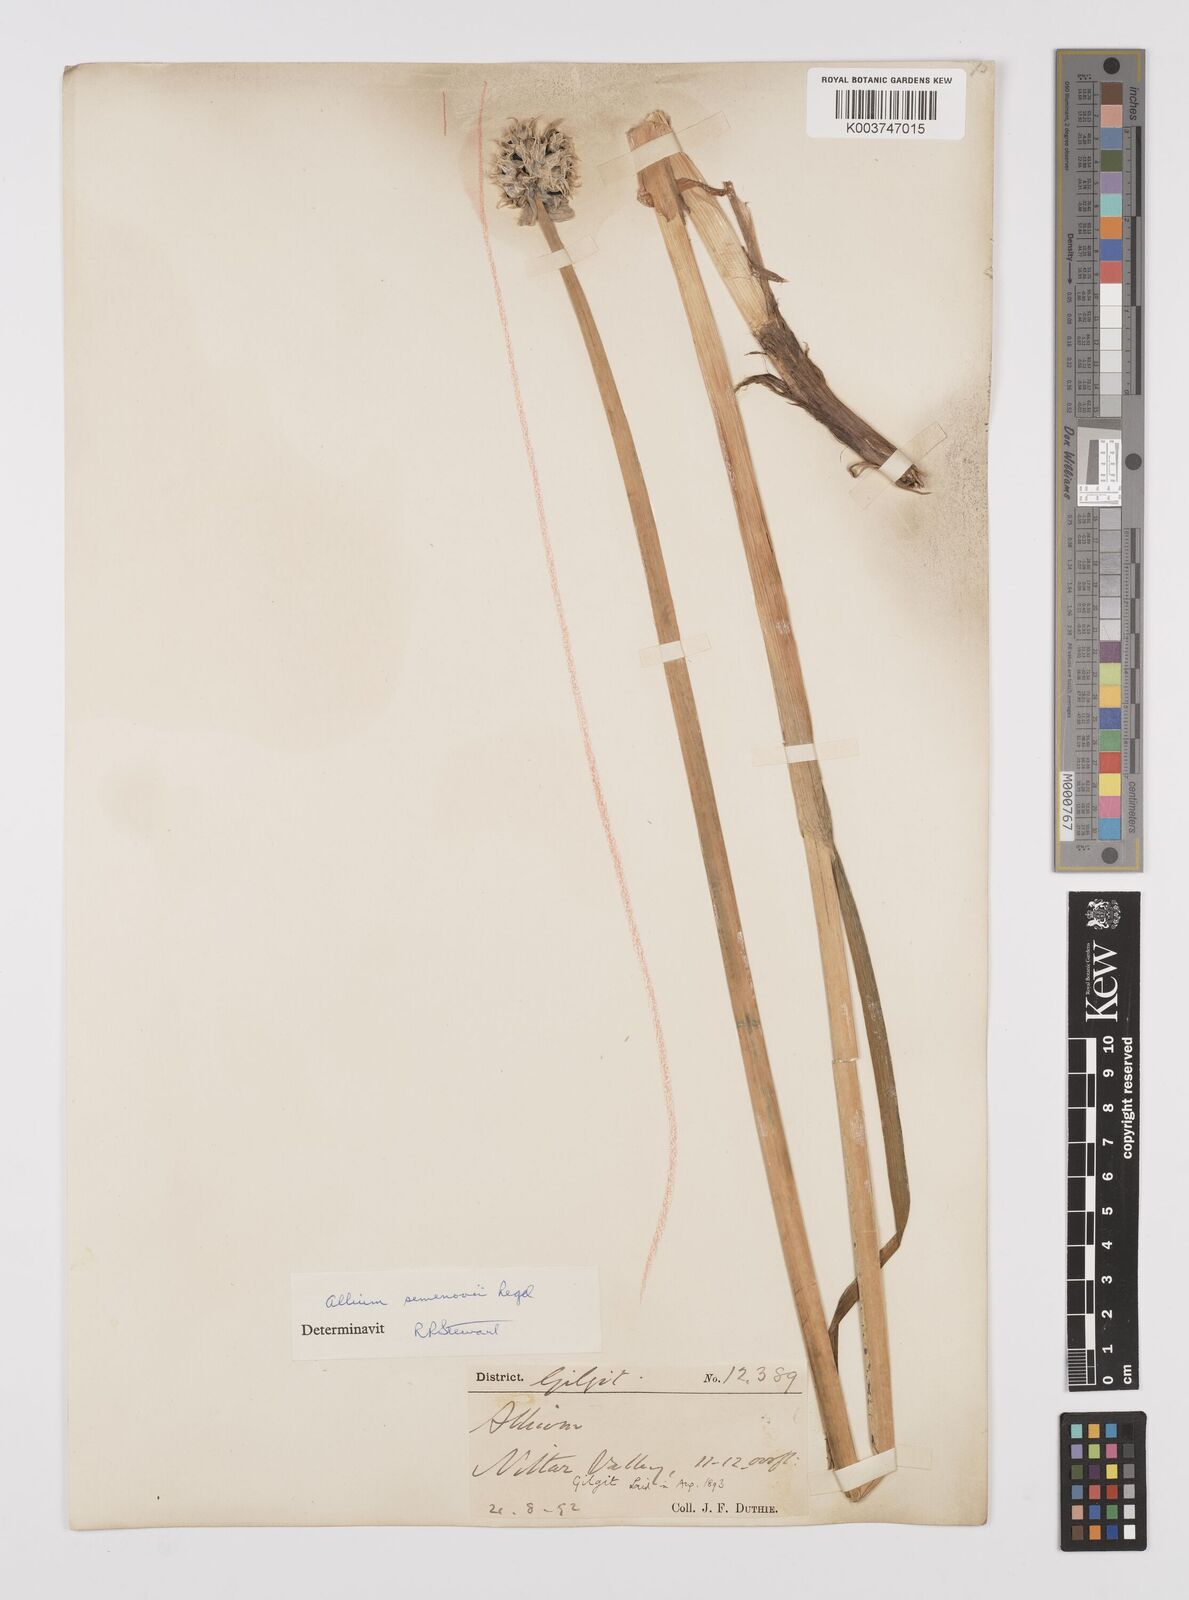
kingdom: Plantae
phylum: Tracheophyta
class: Liliopsida
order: Asparagales
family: Amaryllidaceae
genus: Allium
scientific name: Allium semenovii
